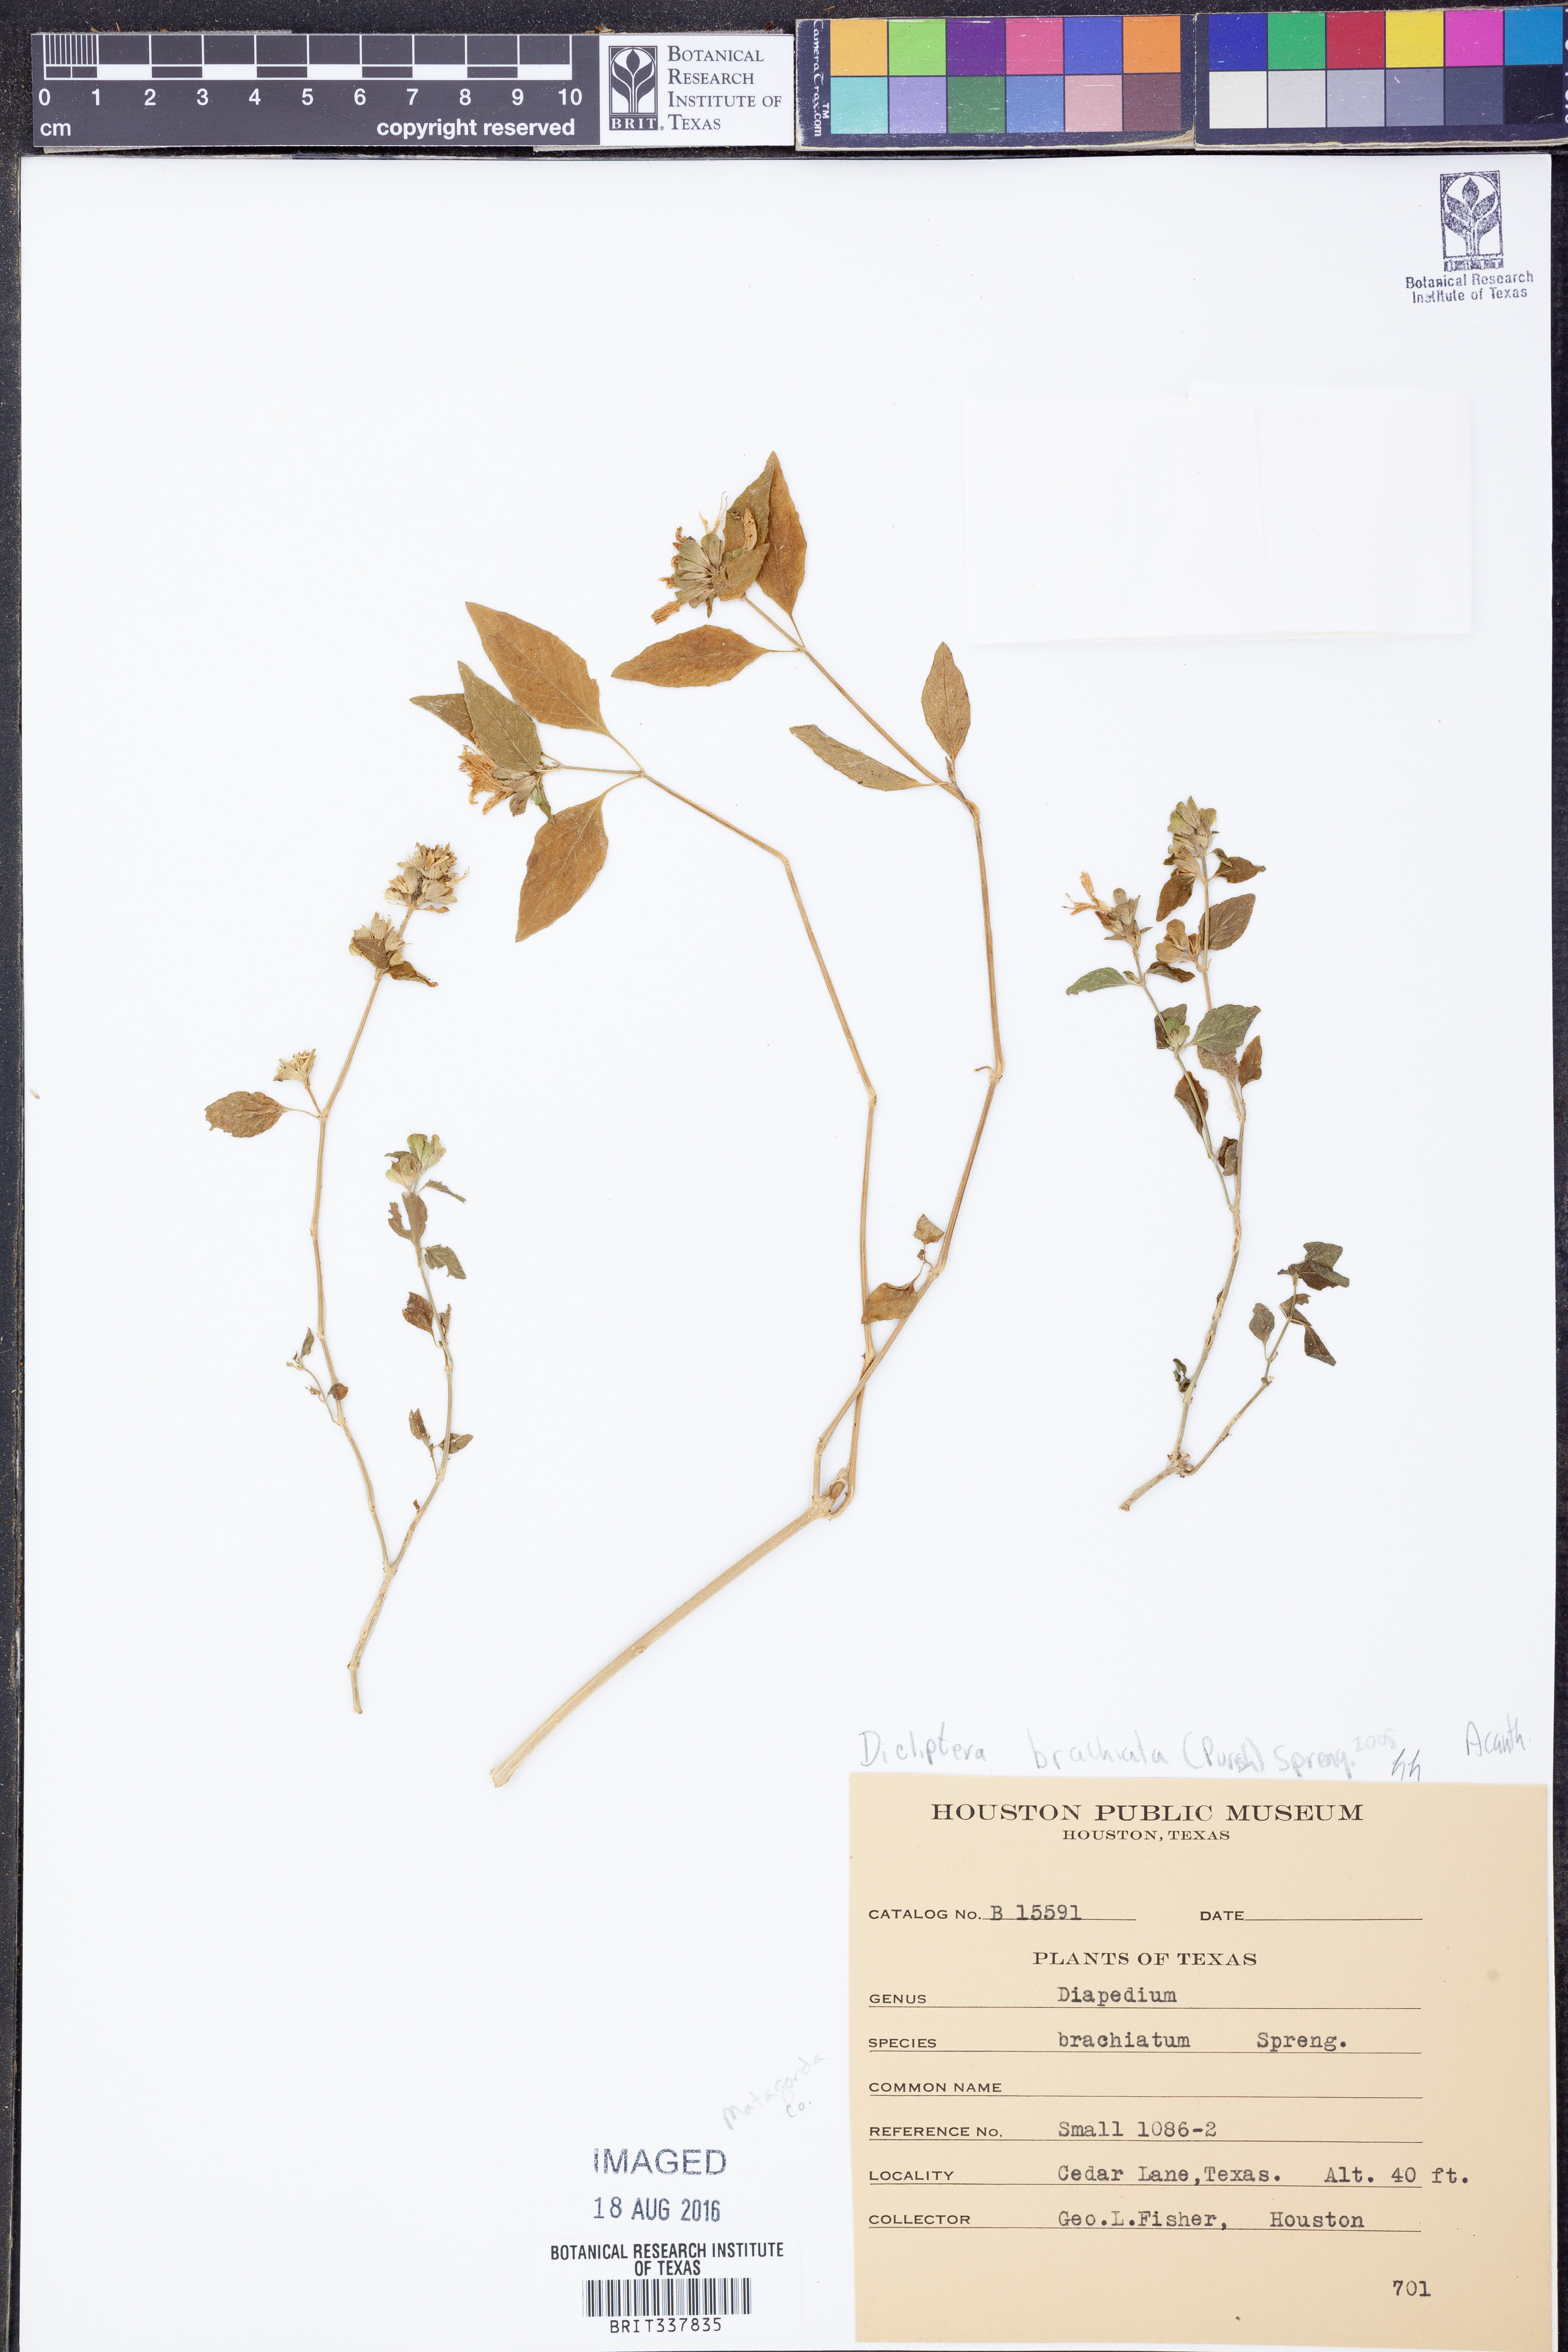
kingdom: Plantae
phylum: Tracheophyta
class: Magnoliopsida
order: Lamiales
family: Acanthaceae
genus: Dicliptera
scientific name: Dicliptera brachiata
